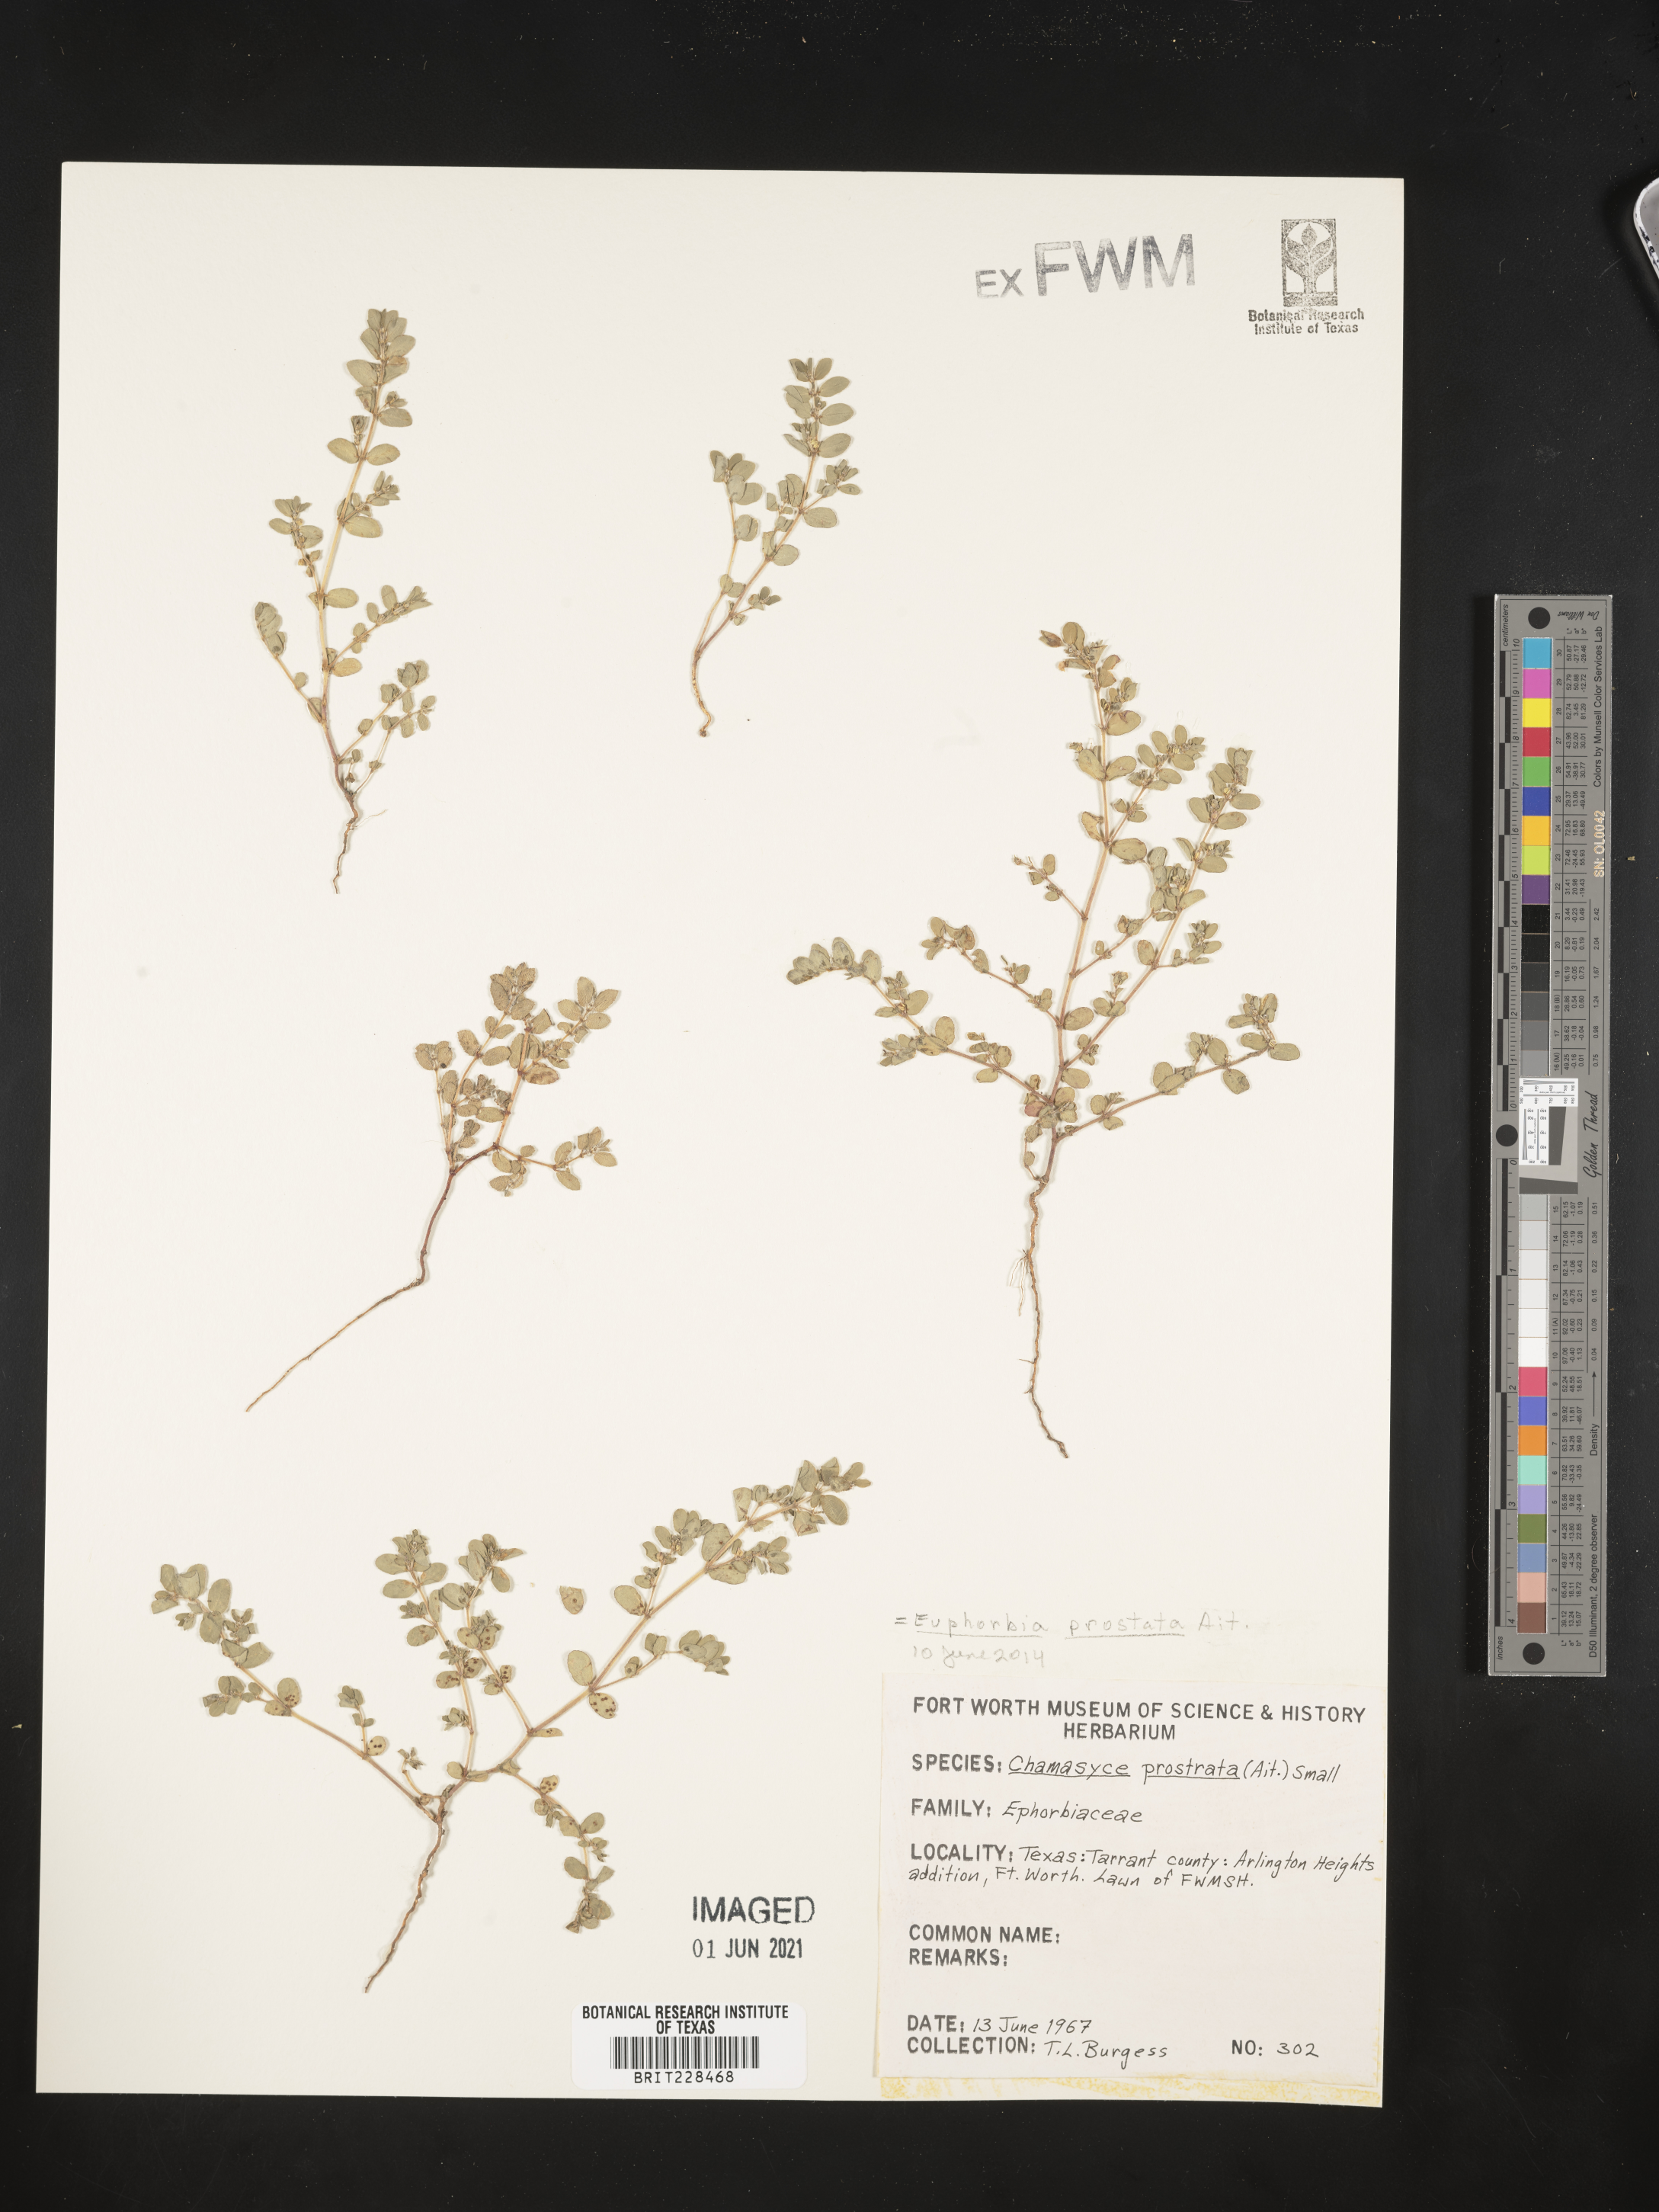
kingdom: Plantae
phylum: Tracheophyta
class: Magnoliopsida
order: Malpighiales
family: Euphorbiaceae
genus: Euphorbia
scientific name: Euphorbia prostrata
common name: Prostrate sandmat
